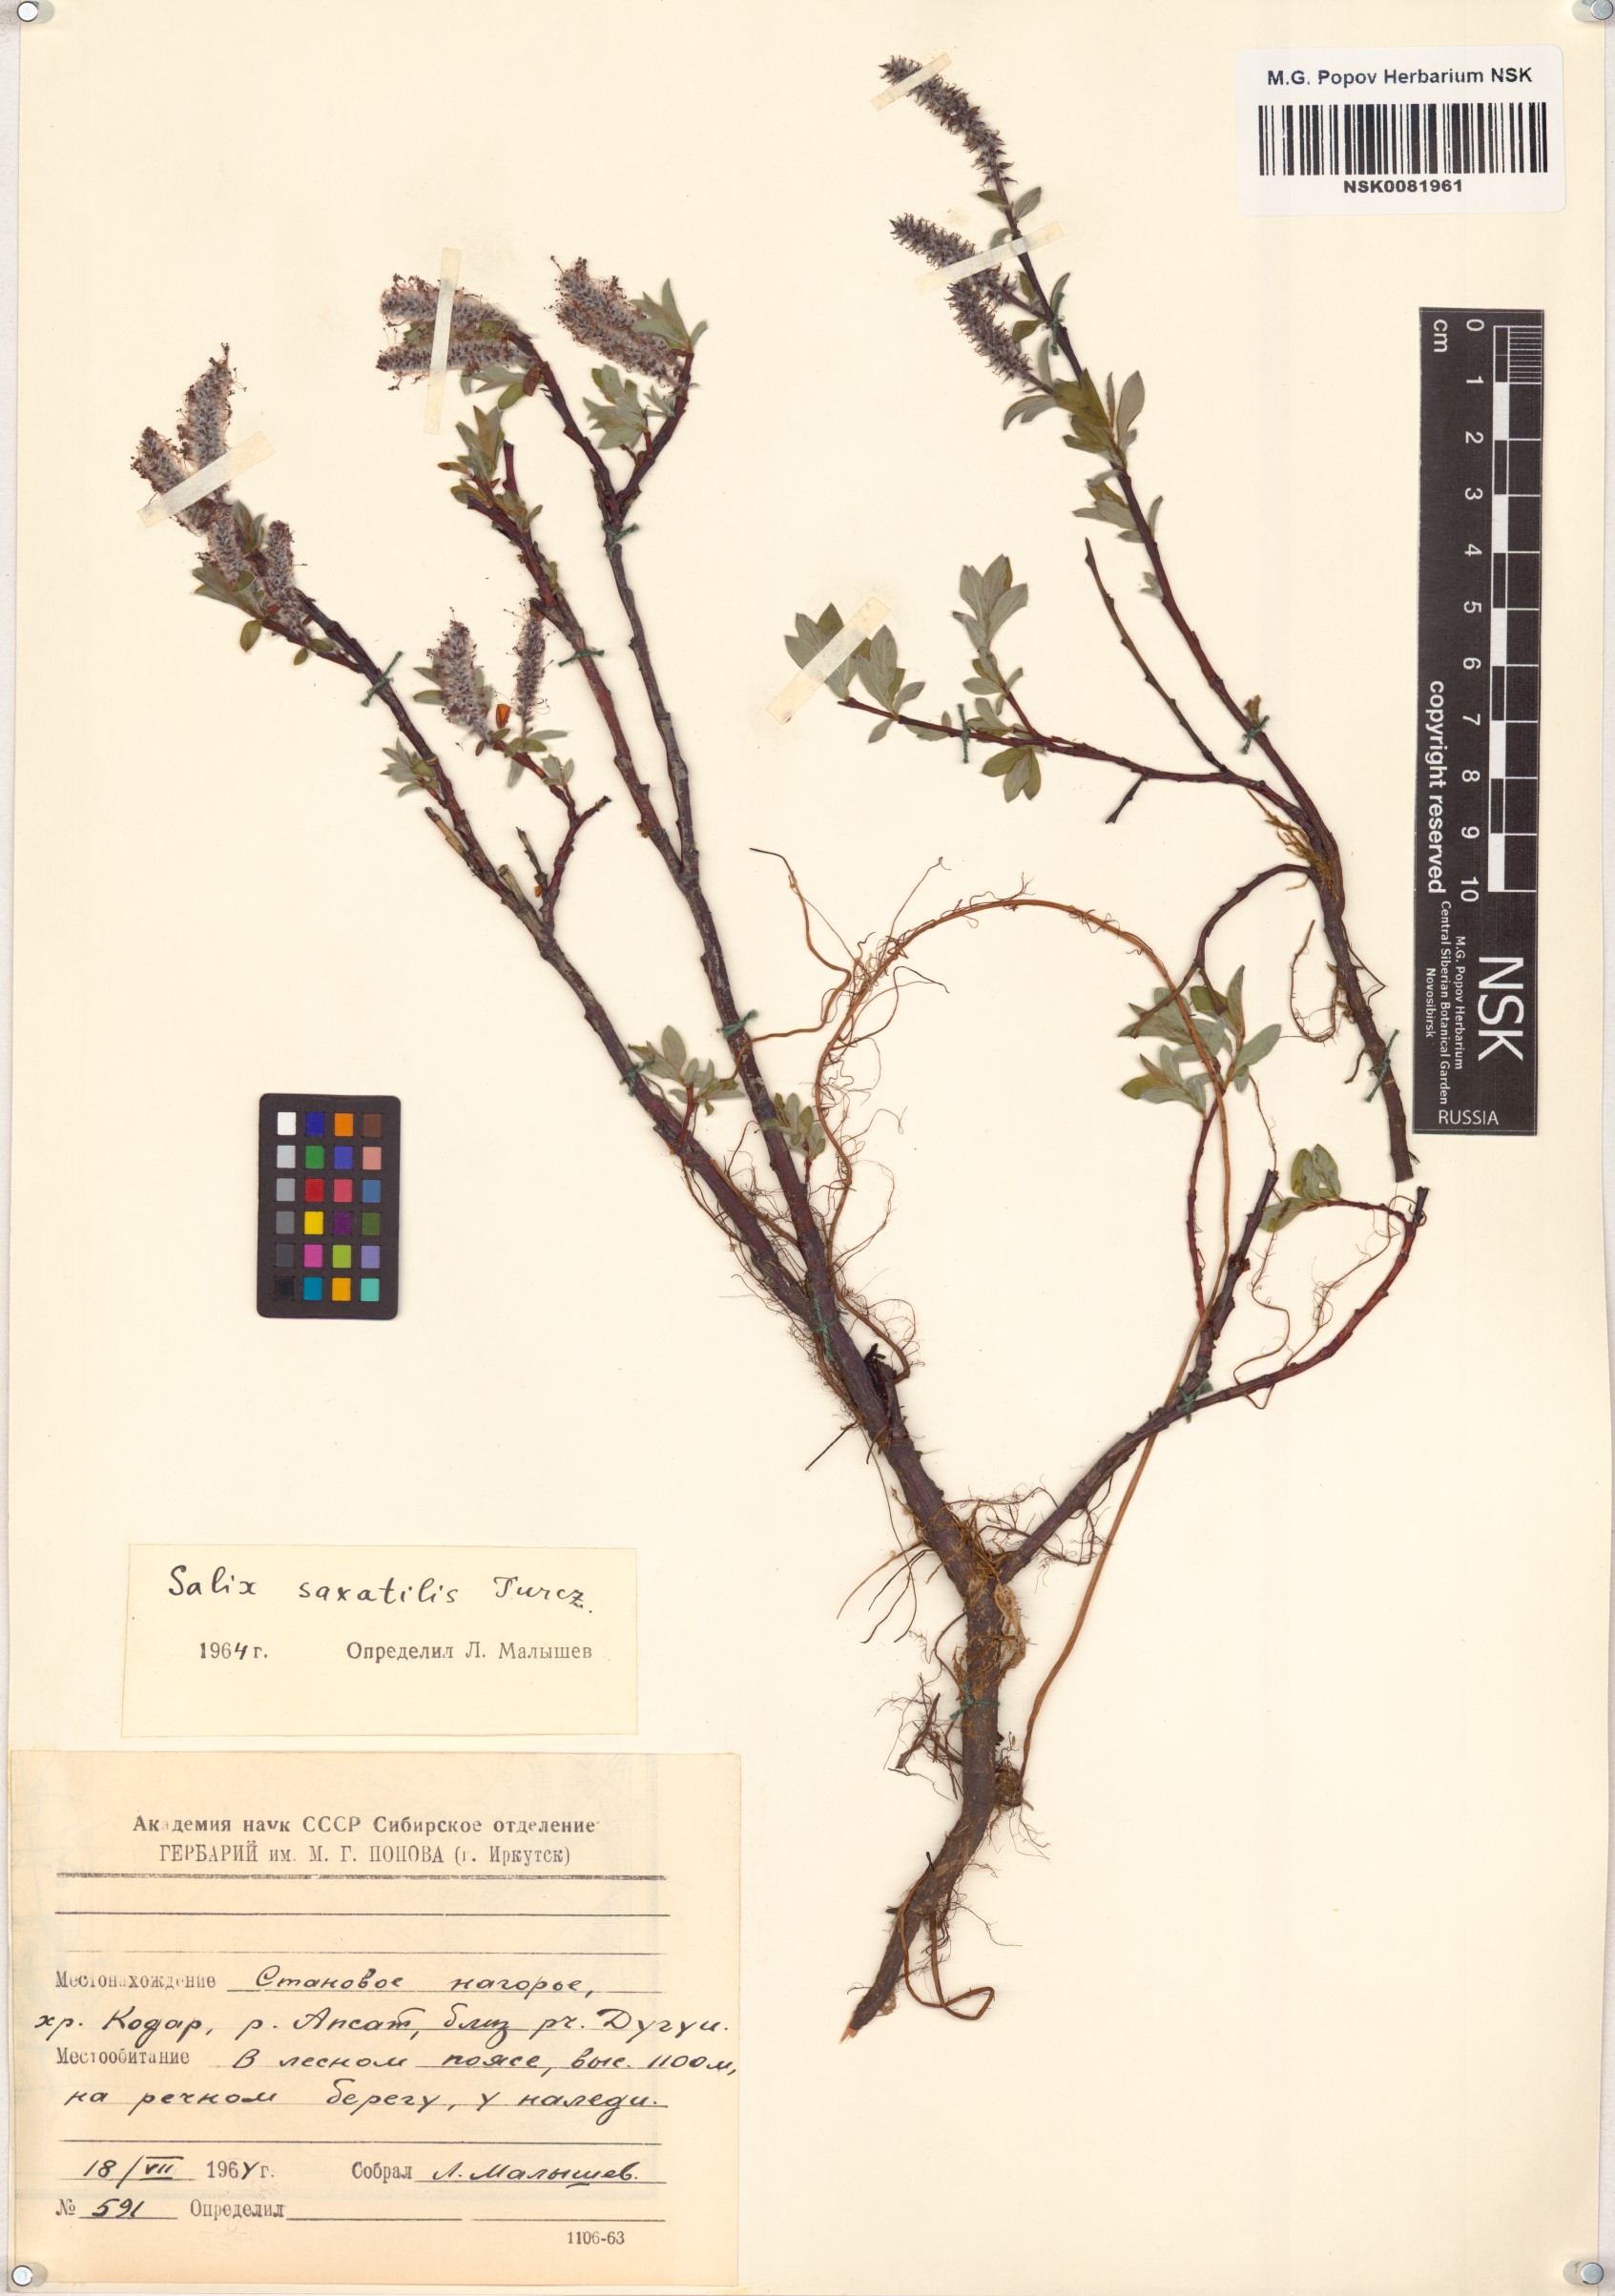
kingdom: Plantae
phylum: Tracheophyta
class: Magnoliopsida
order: Malpighiales
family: Salicaceae
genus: Salix
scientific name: Salix saxatilis
